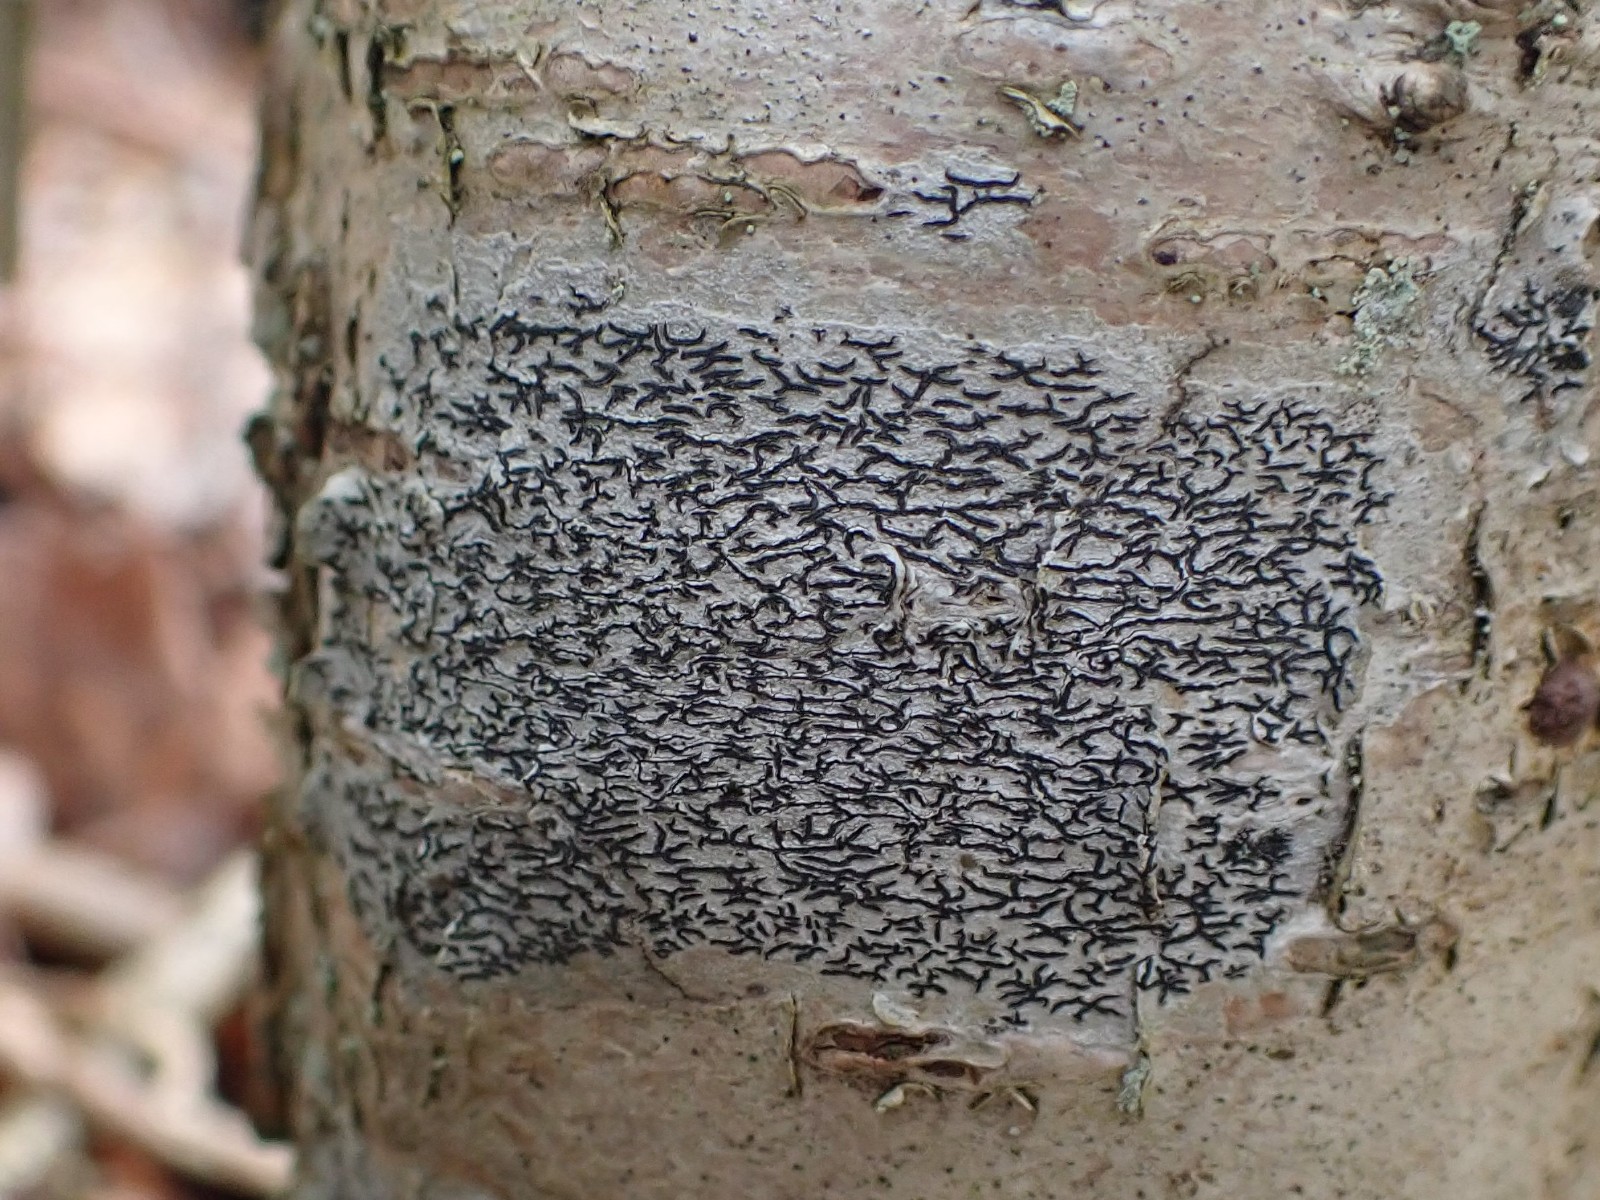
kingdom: Fungi
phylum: Ascomycota
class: Lecanoromycetes
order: Ostropales
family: Graphidaceae
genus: Graphis
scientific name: Graphis scripta
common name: almindelig skriftlav
